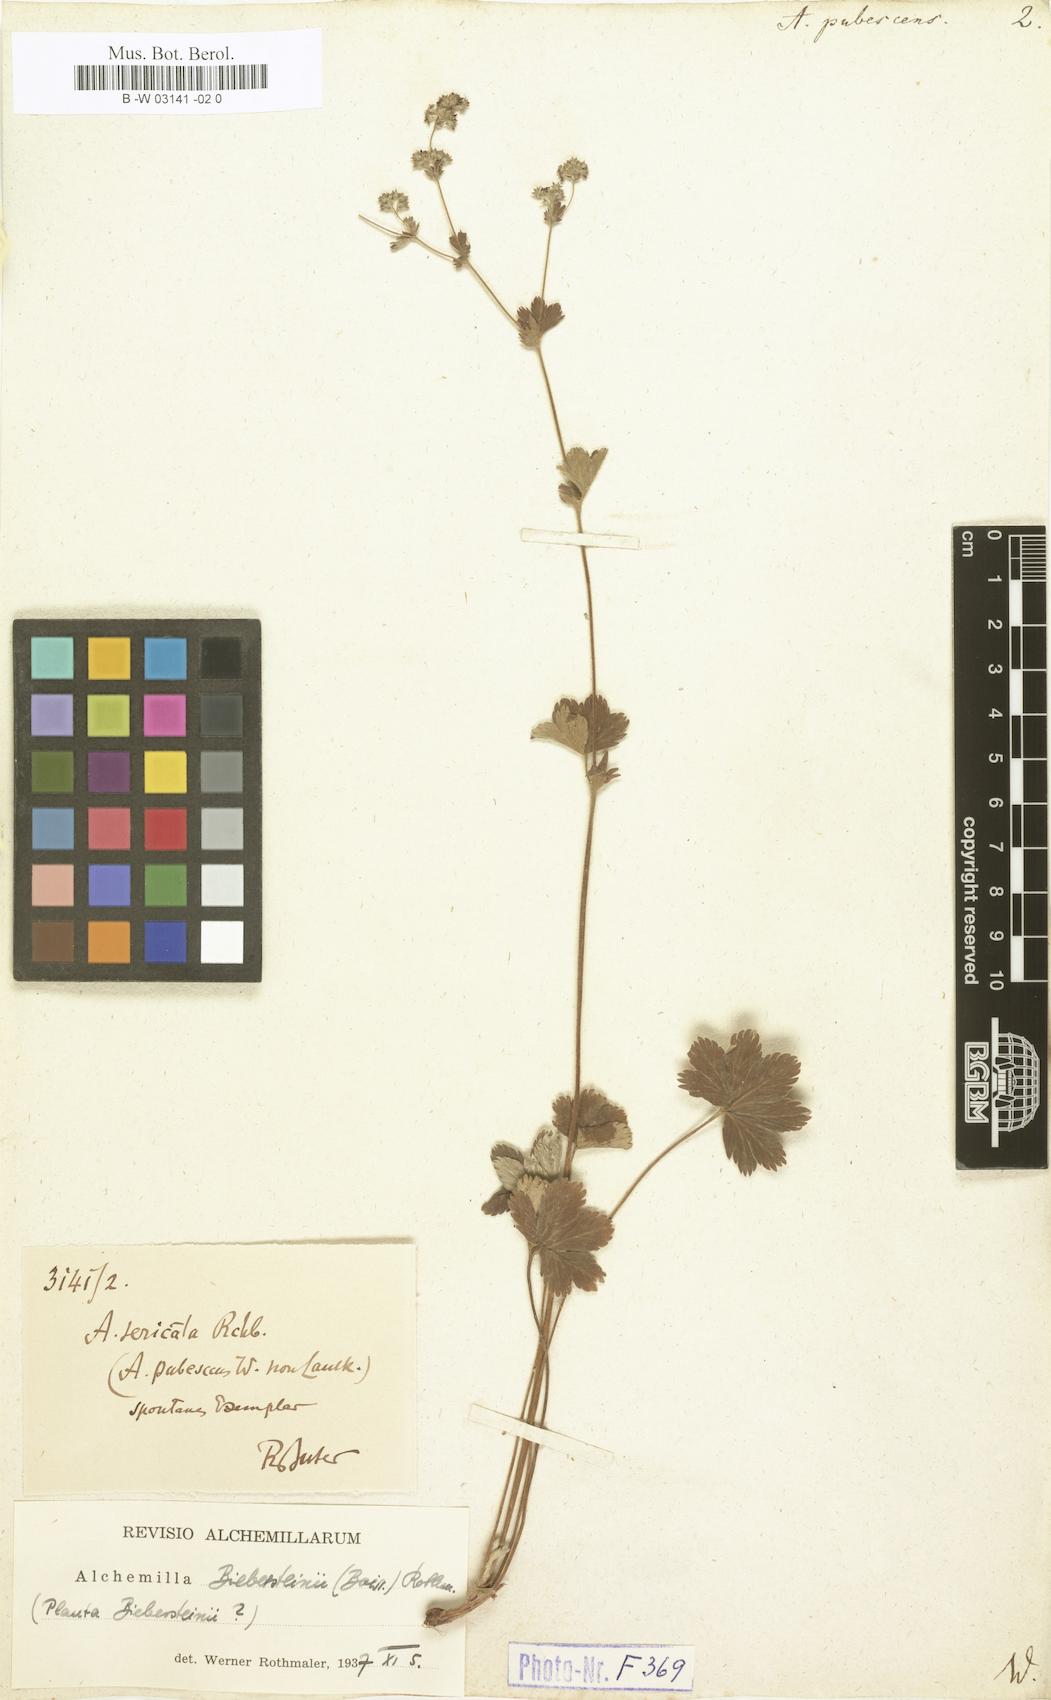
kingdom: Plantae
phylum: Tracheophyta
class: Magnoliopsida
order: Rosales
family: Rosaceae
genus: Alchemilla
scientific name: Alchemilla hybrida
